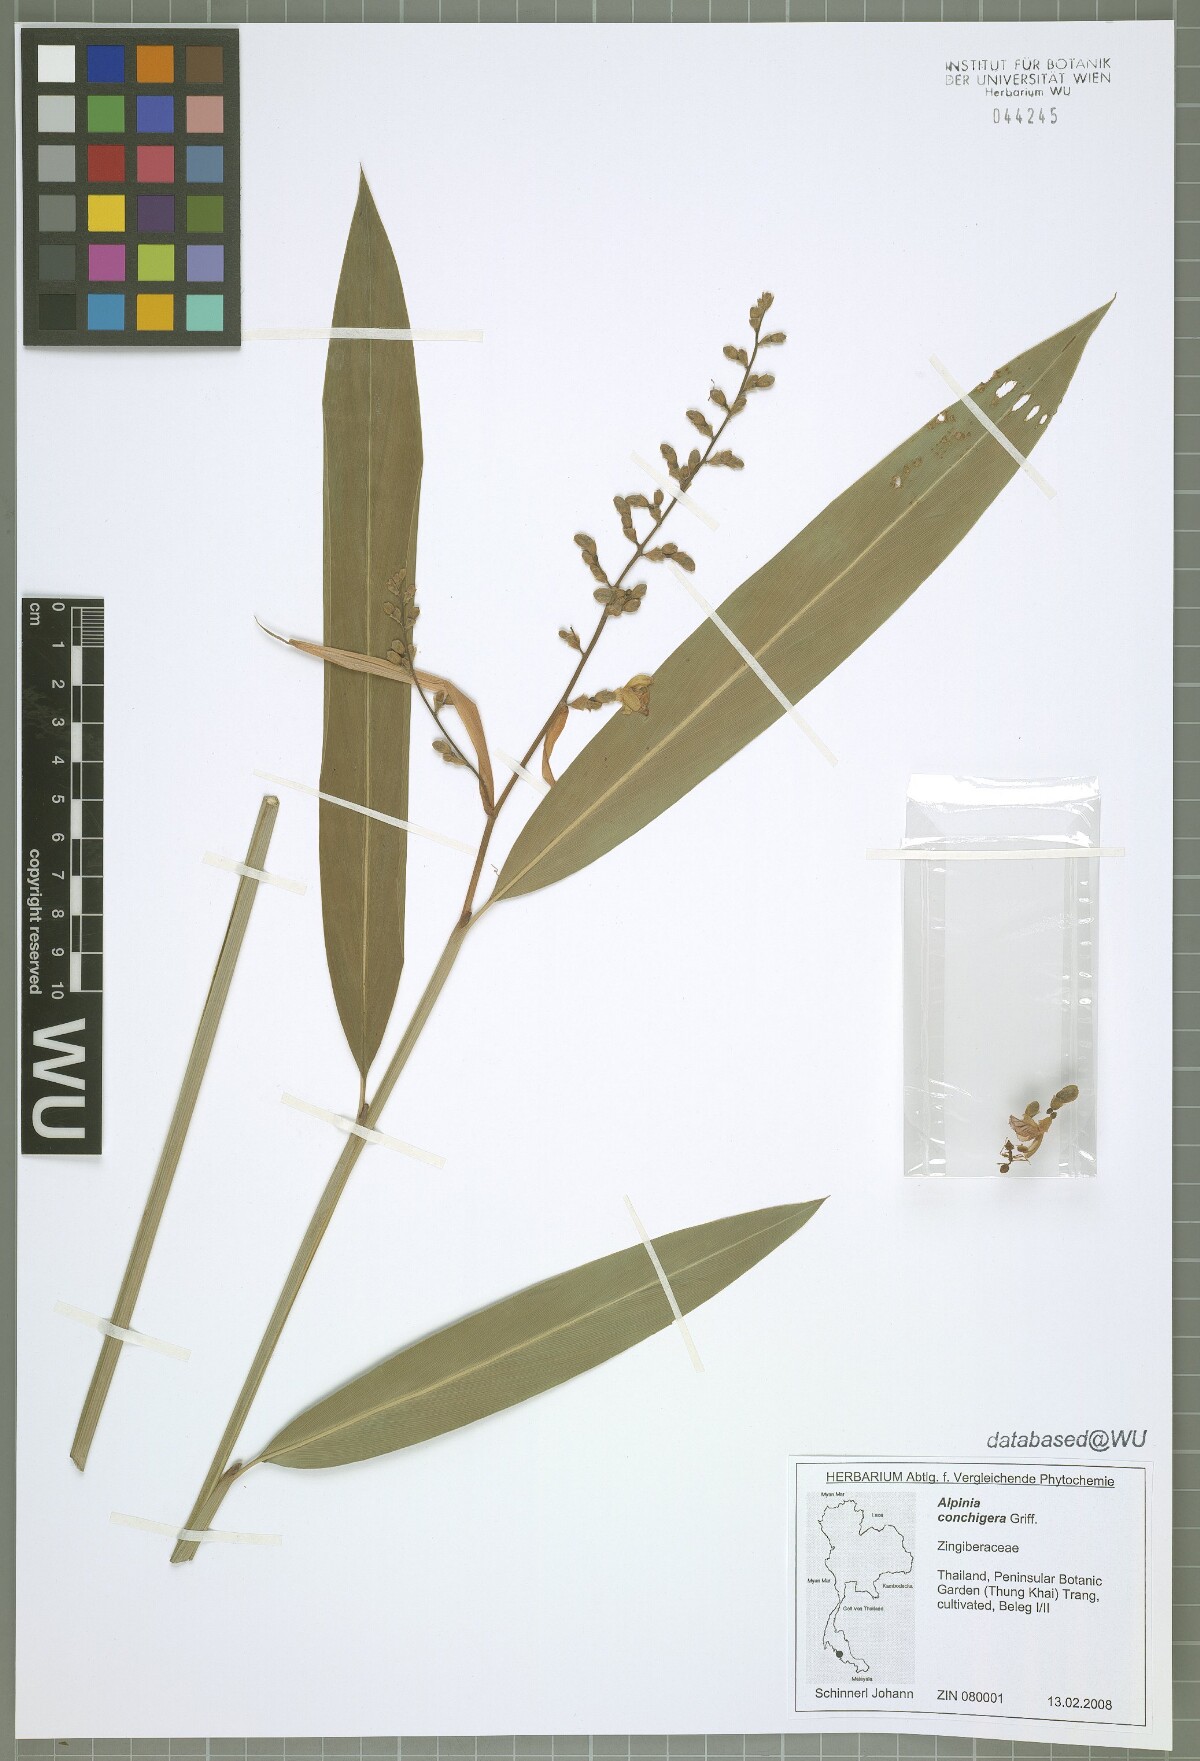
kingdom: Plantae
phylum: Tracheophyta
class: Liliopsida
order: Zingiberales
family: Zingiberaceae
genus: Alpinia
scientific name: Alpinia conchigera
